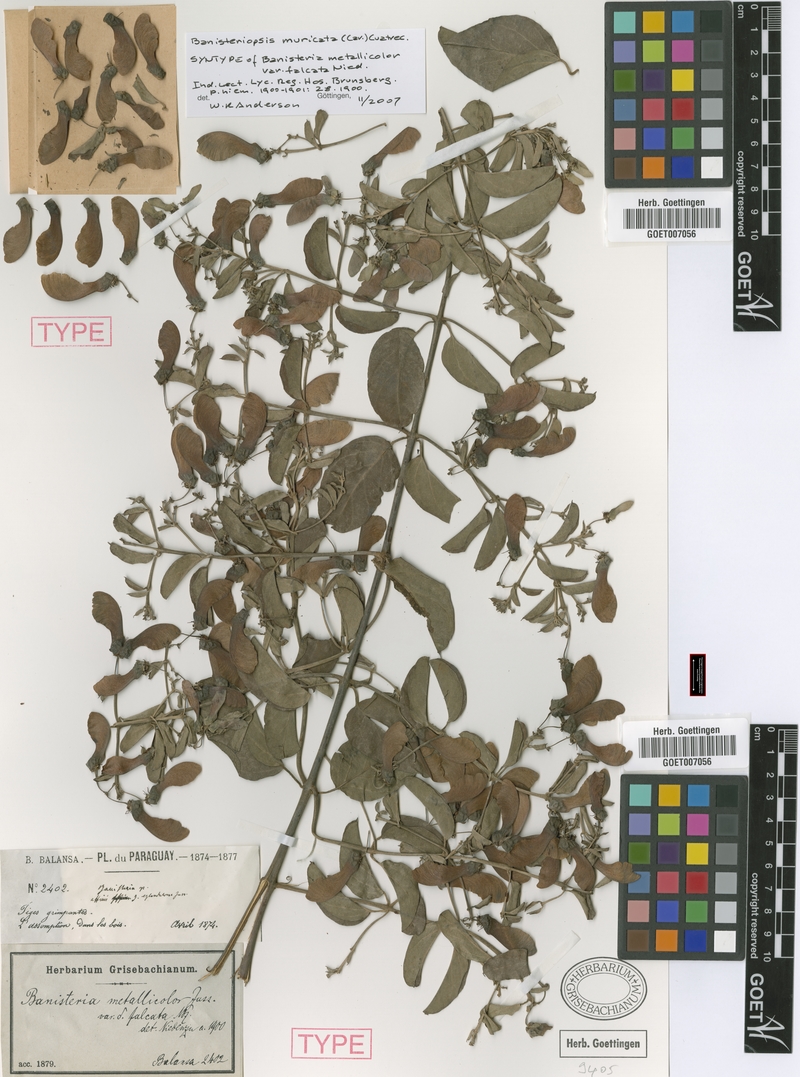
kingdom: Plantae
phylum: Tracheophyta
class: Magnoliopsida
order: Malpighiales
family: Malpighiaceae
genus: Banisteriopsis
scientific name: Banisteriopsis muricata
